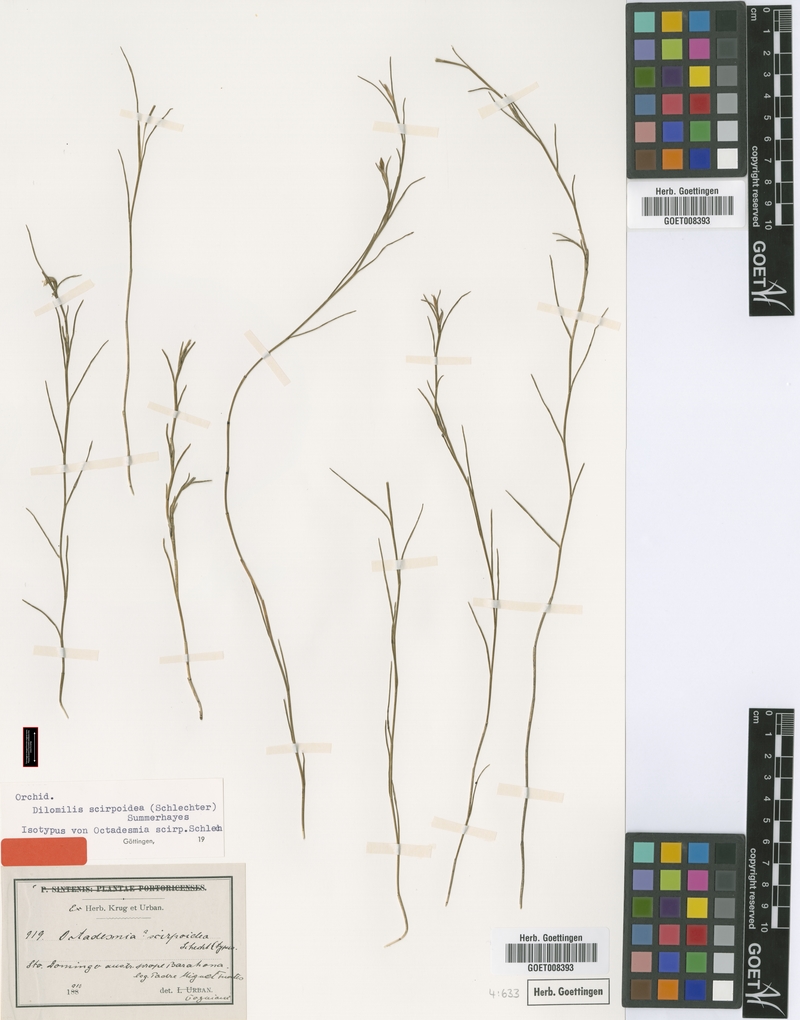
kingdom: Plantae
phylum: Tracheophyta
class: Liliopsida
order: Asparagales
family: Orchidaceae
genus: Dilomilis
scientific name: Dilomilis scirpoidea
